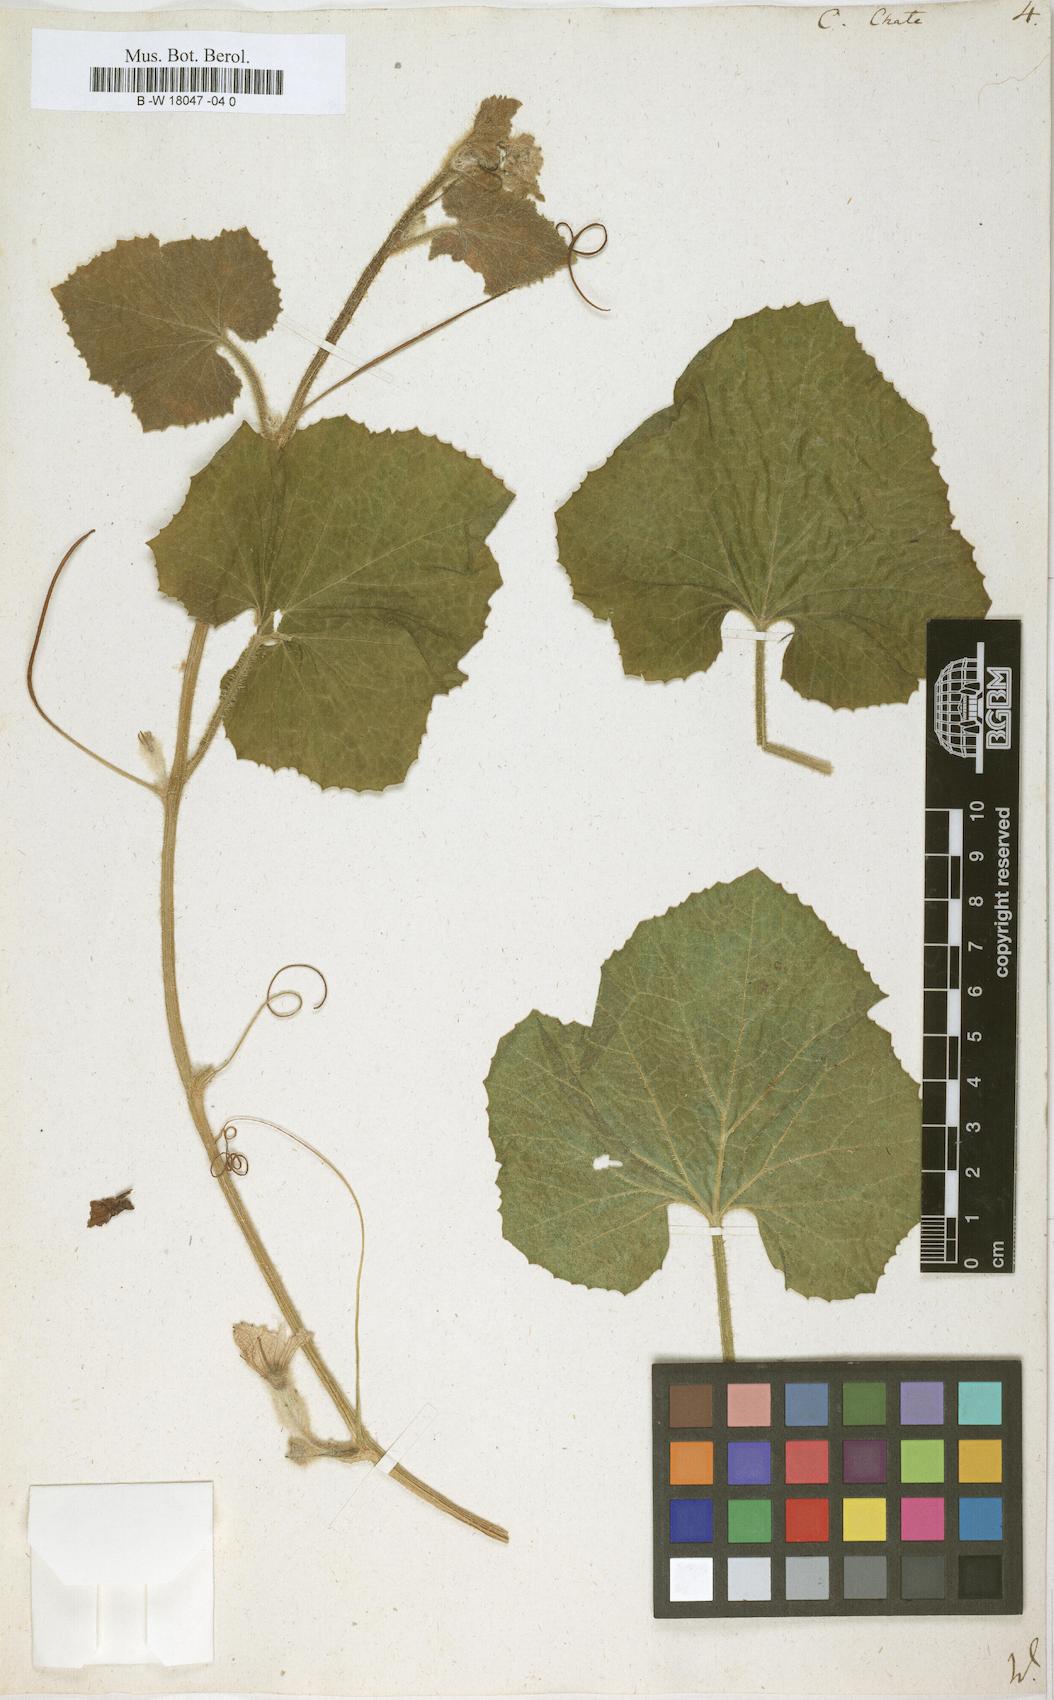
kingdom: Plantae
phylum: Tracheophyta
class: Magnoliopsida
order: Cucurbitales
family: Cucurbitaceae
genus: Cucumis
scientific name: Cucumis melo
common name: Melon
